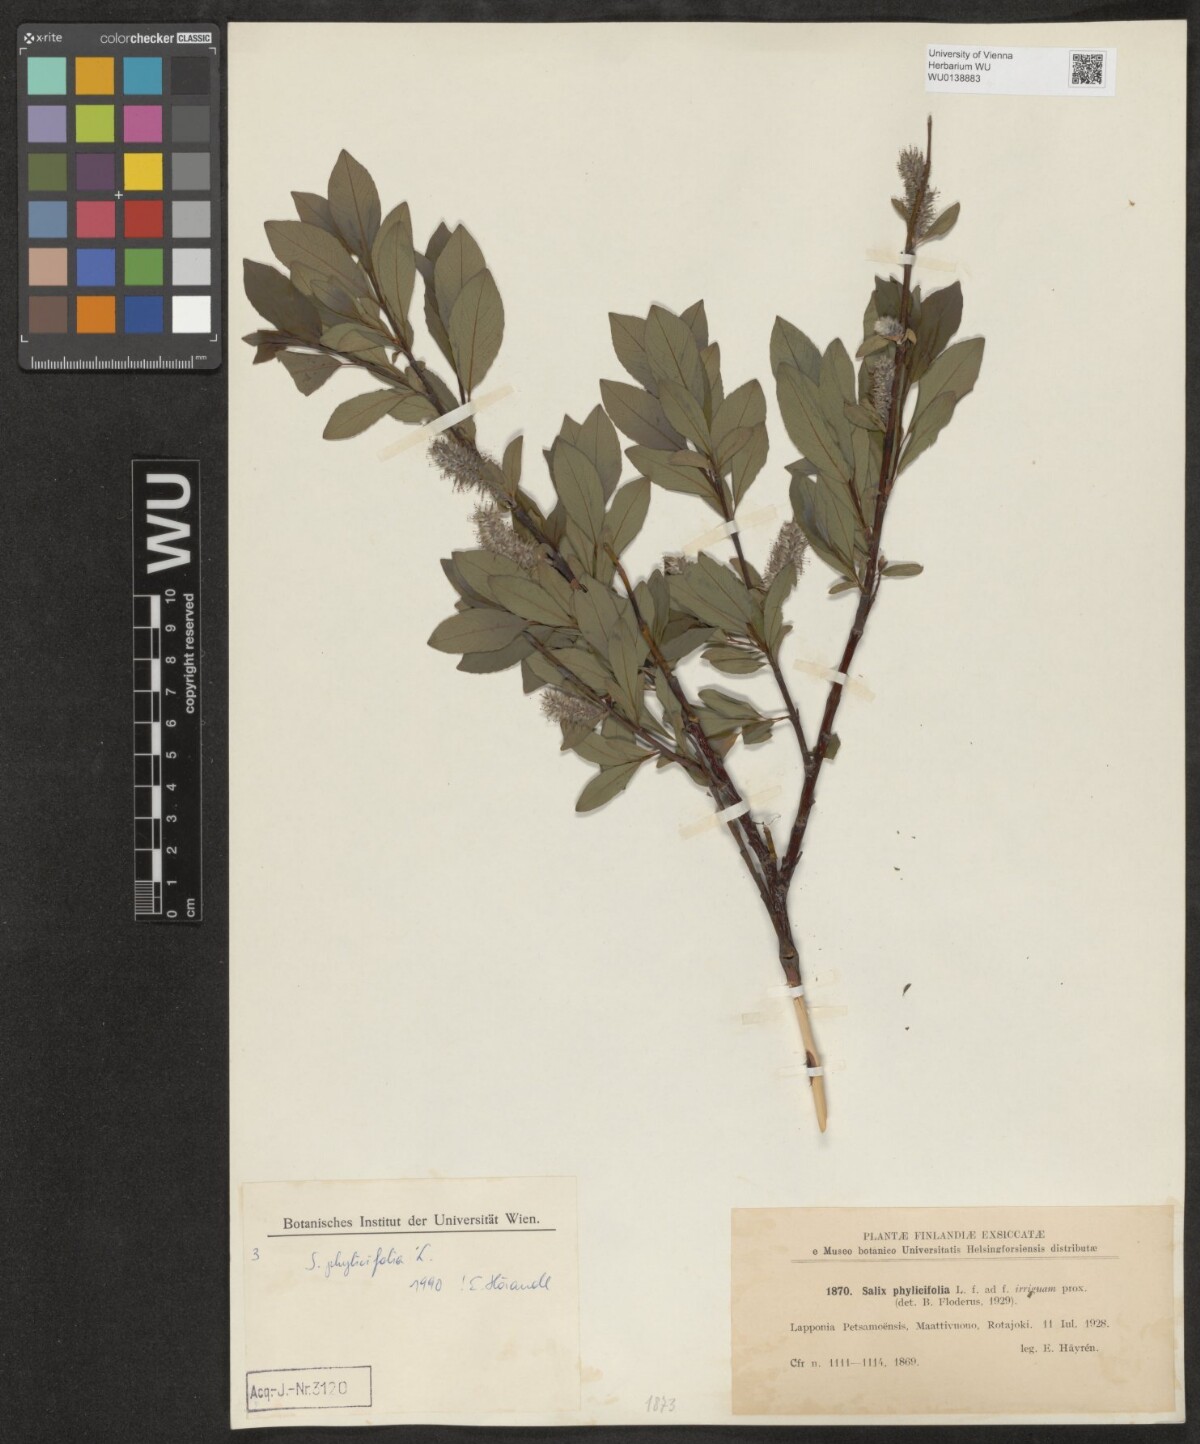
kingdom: Plantae
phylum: Tracheophyta
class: Magnoliopsida
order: Malpighiales
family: Salicaceae
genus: Salix
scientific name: Salix phylicifolia
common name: Tea-leaved willow
